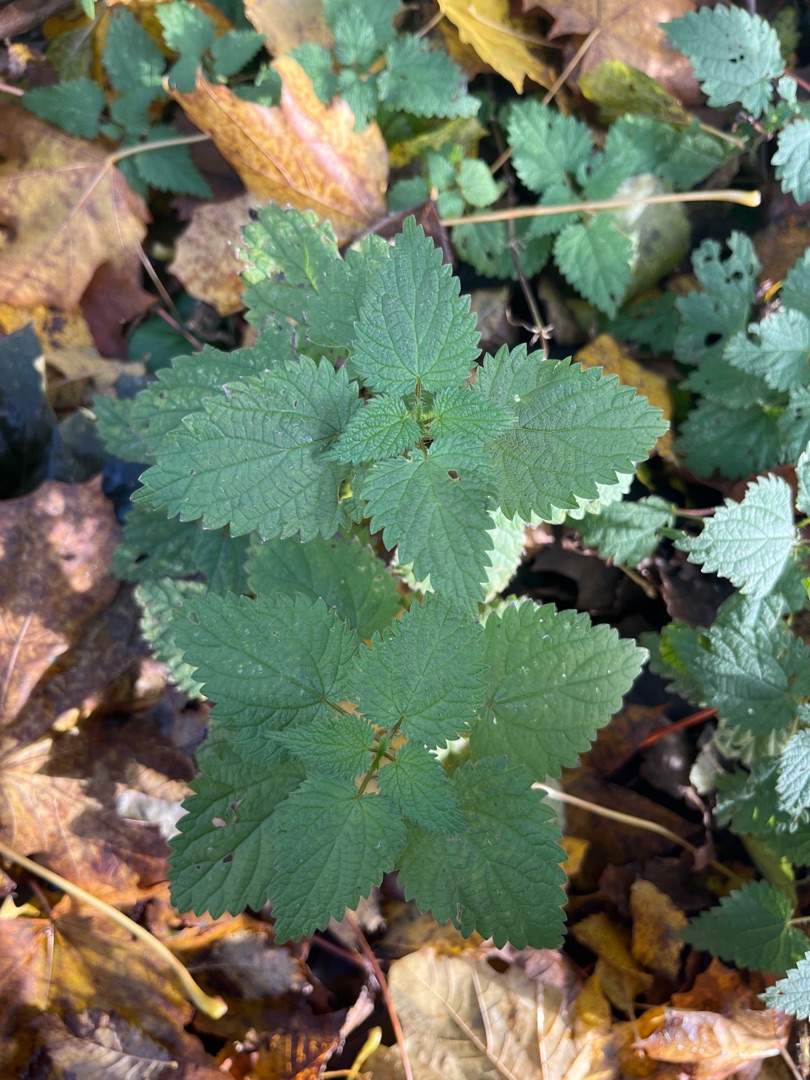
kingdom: Plantae
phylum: Tracheophyta
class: Magnoliopsida
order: Rosales
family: Urticaceae
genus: Urtica
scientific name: Urtica dioica
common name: Stor nælde
